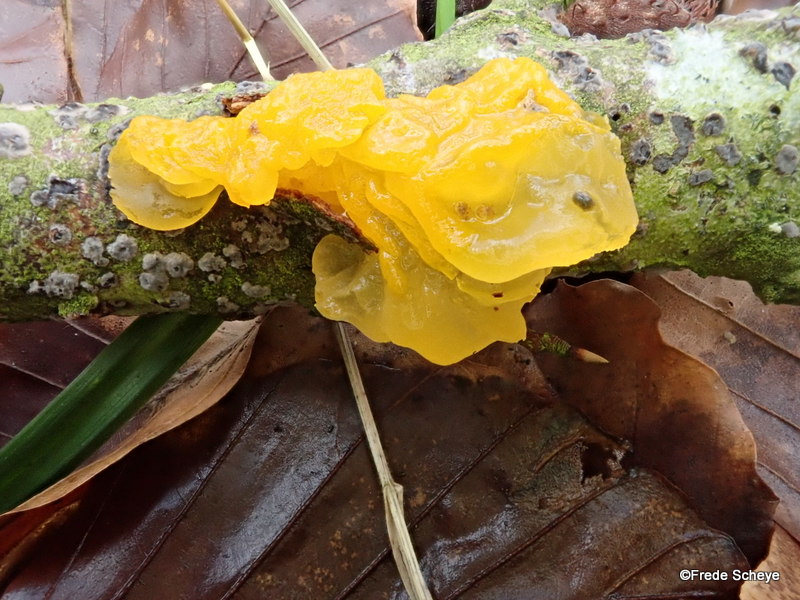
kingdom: Fungi
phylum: Basidiomycota
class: Tremellomycetes
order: Tremellales
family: Tremellaceae
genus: Tremella
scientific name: Tremella mesenterica
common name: gul bævresvamp
